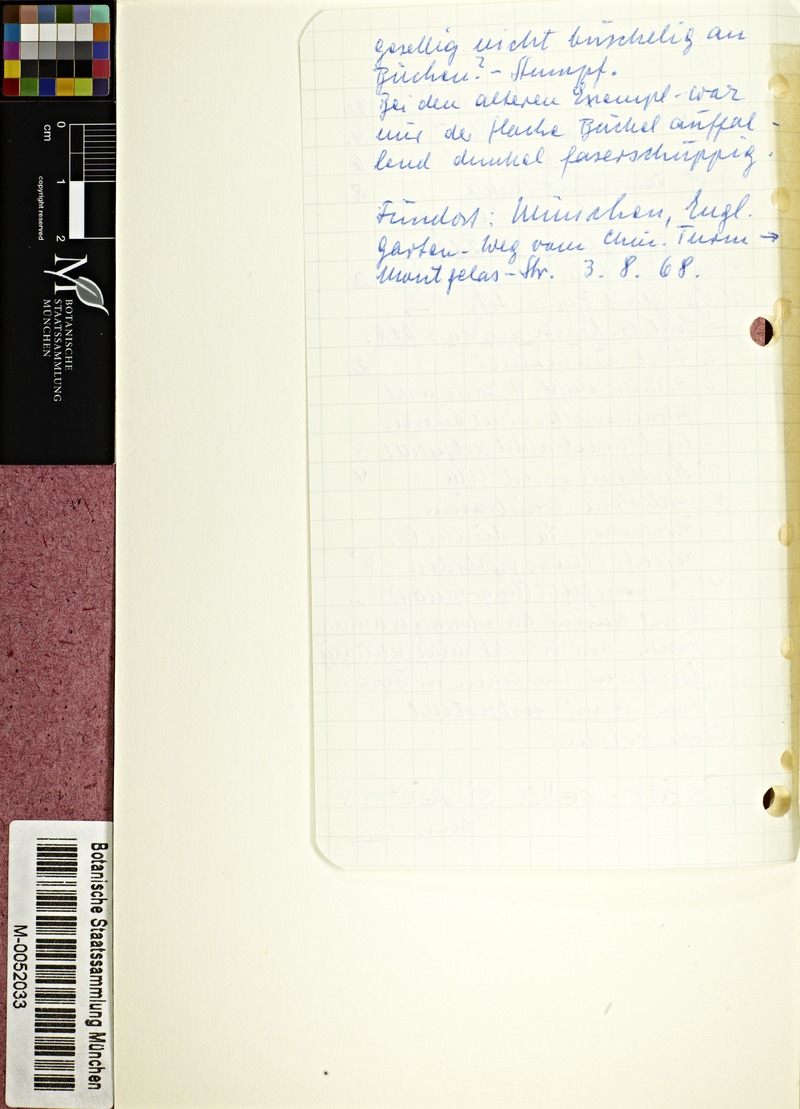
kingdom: Fungi
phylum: Basidiomycota
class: Agaricomycetes
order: Agaricales
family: Psathyrellaceae
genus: Cystoagaricus
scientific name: Cystoagaricus sylvestris
